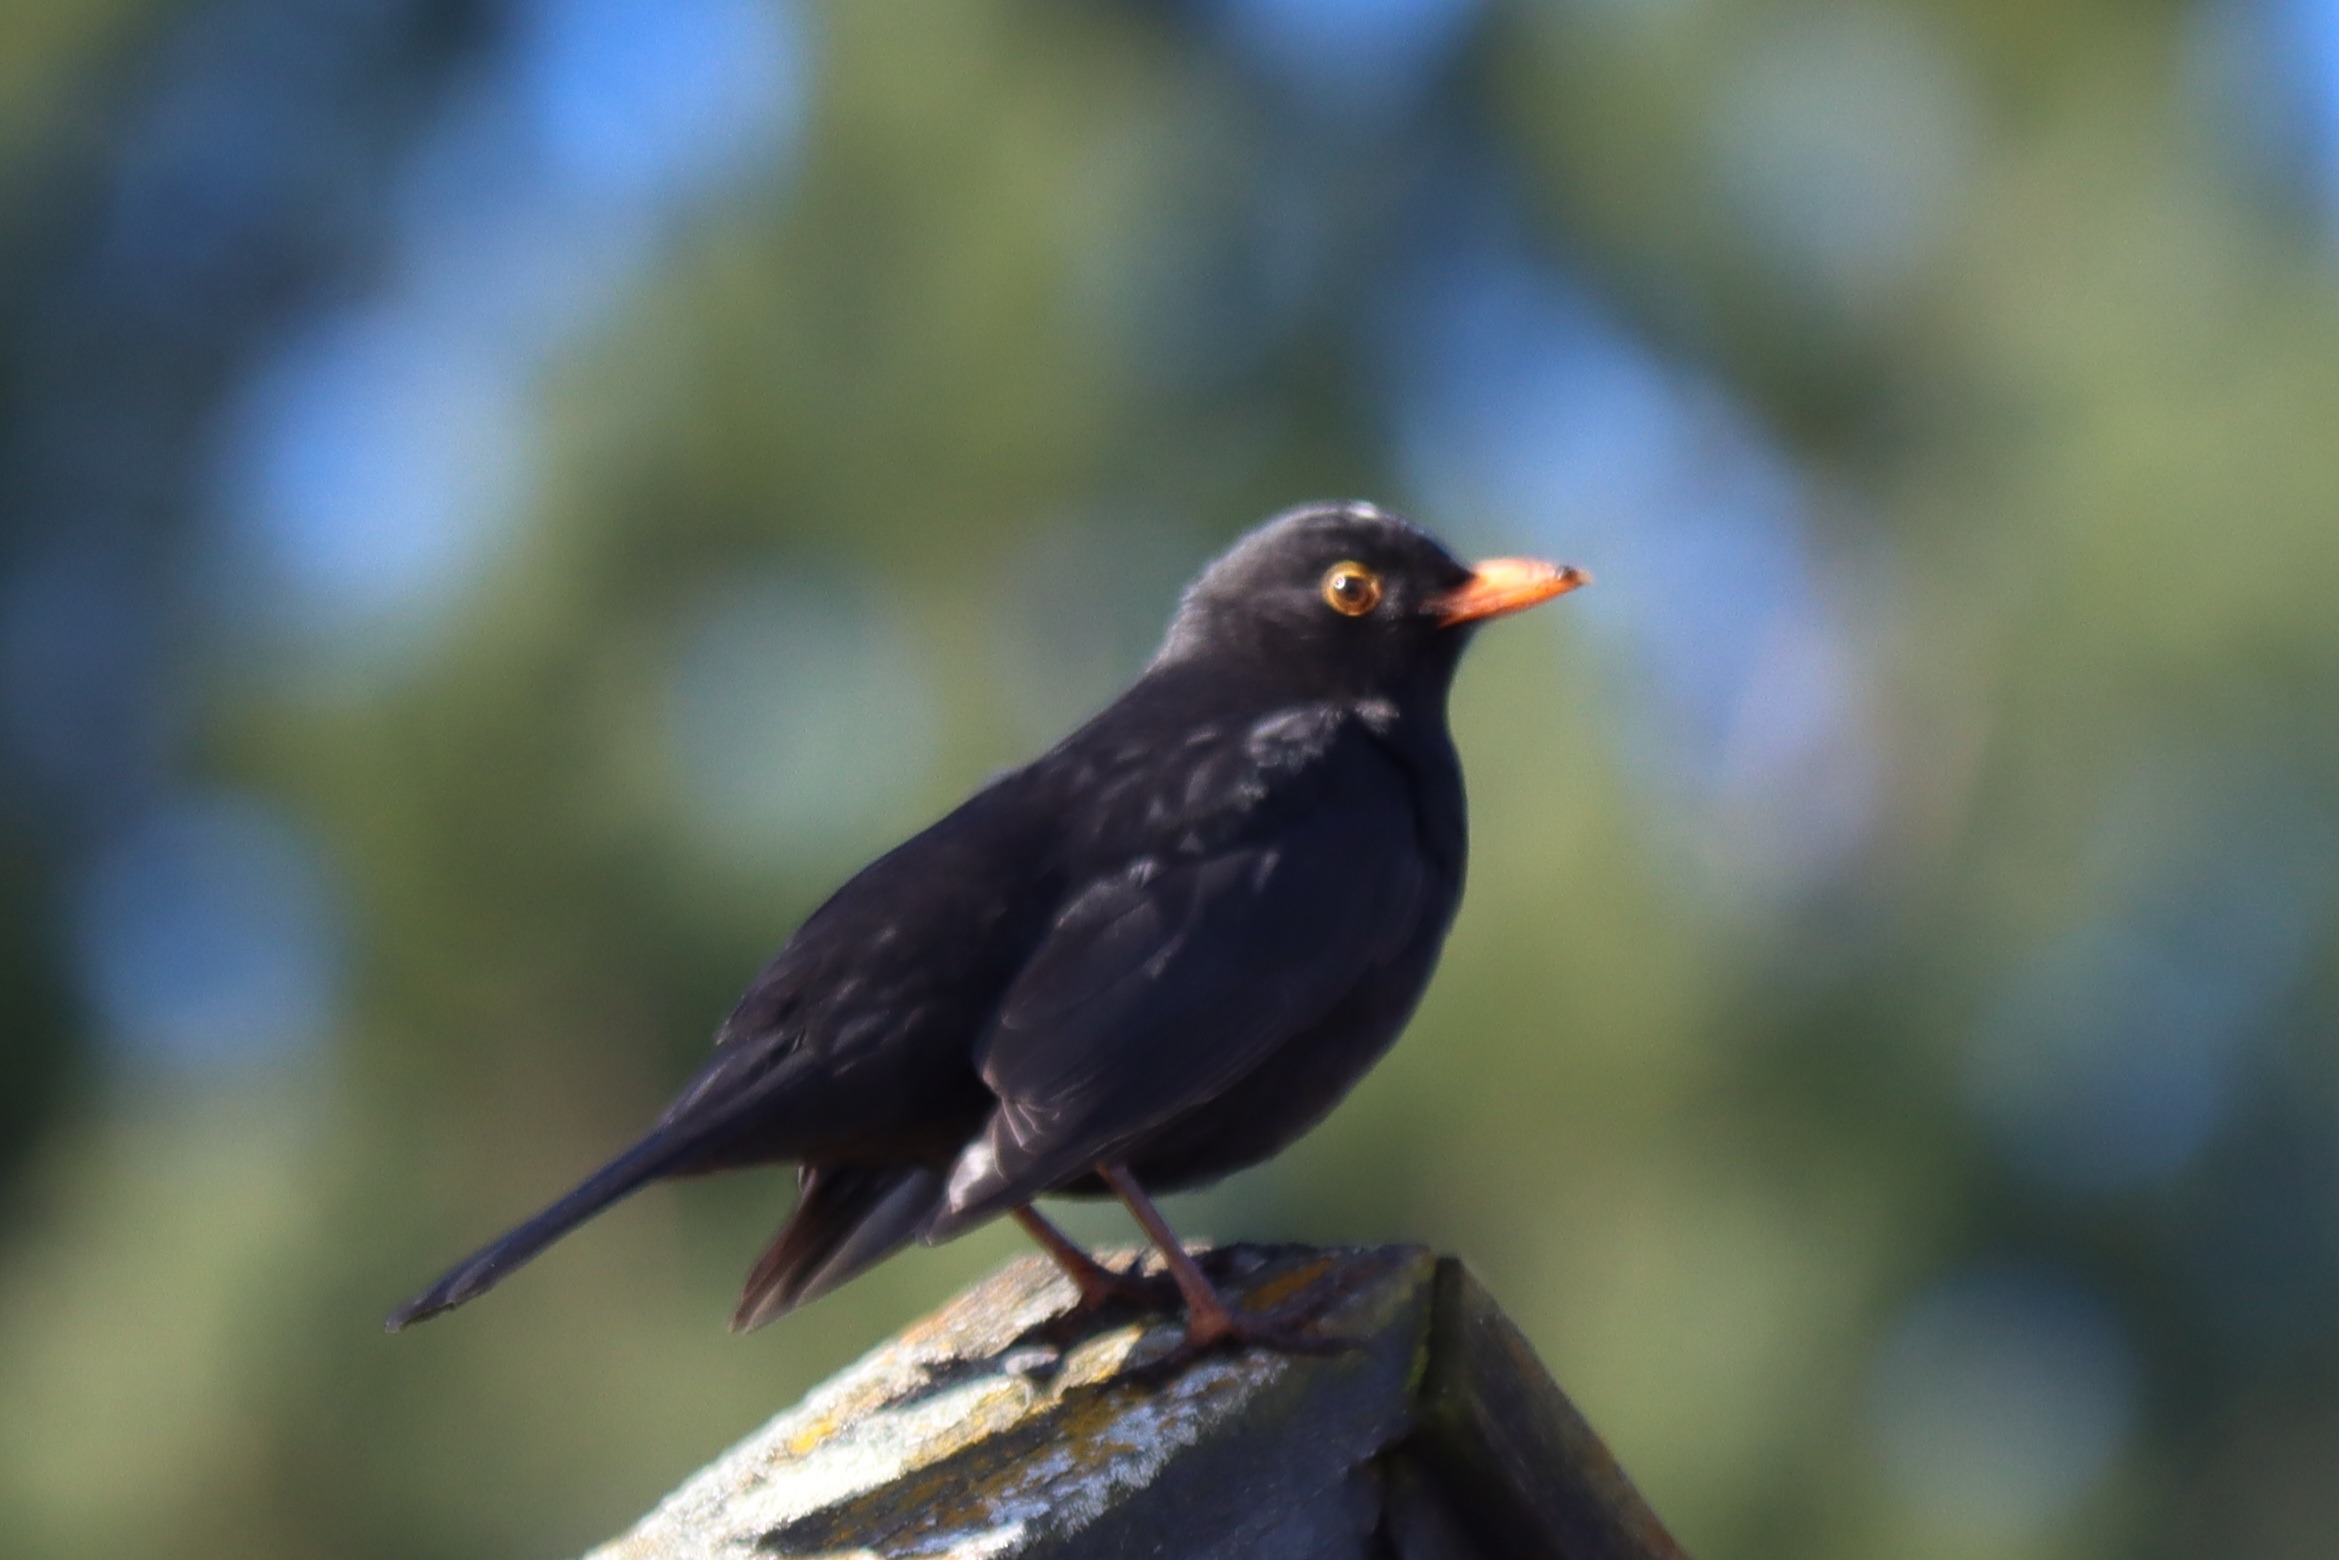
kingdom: Animalia
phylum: Chordata
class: Aves
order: Passeriformes
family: Turdidae
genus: Turdus
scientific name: Turdus merula
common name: Solsort
